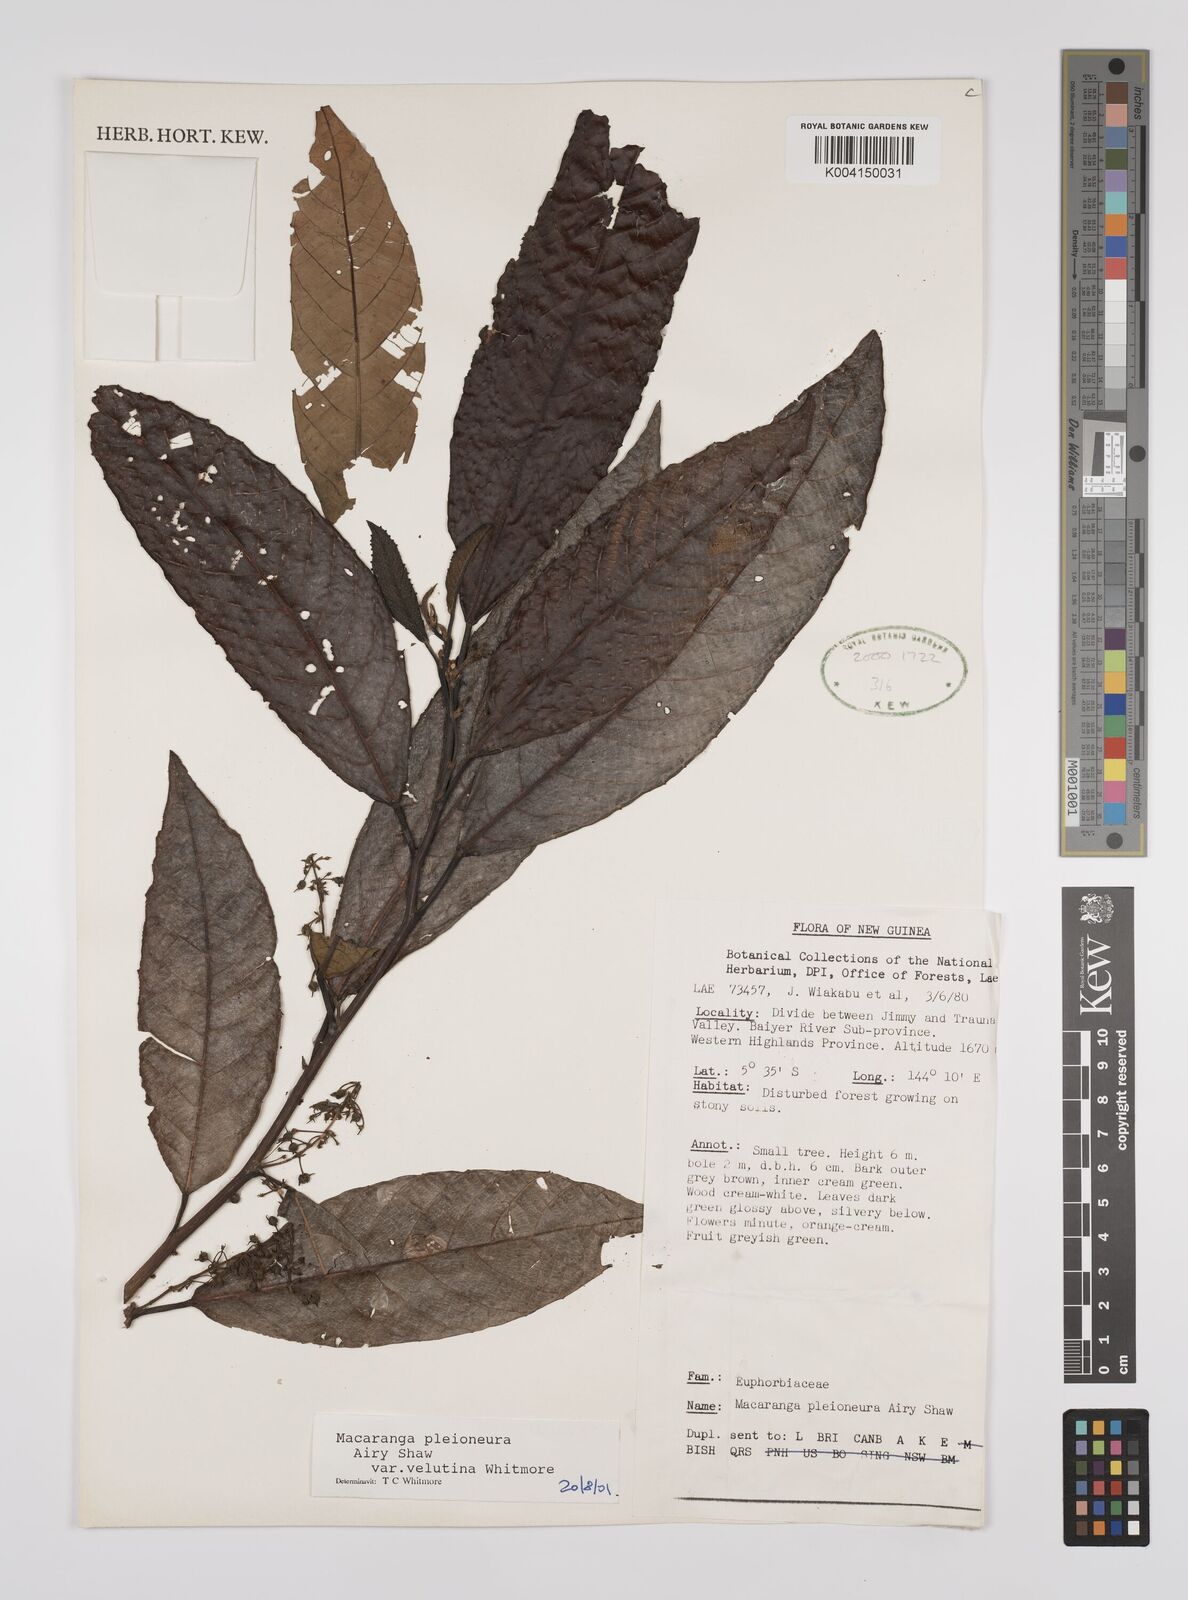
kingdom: Plantae
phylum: Tracheophyta
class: Magnoliopsida
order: Malpighiales
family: Euphorbiaceae
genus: Macaranga
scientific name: Macaranga pleioneura
